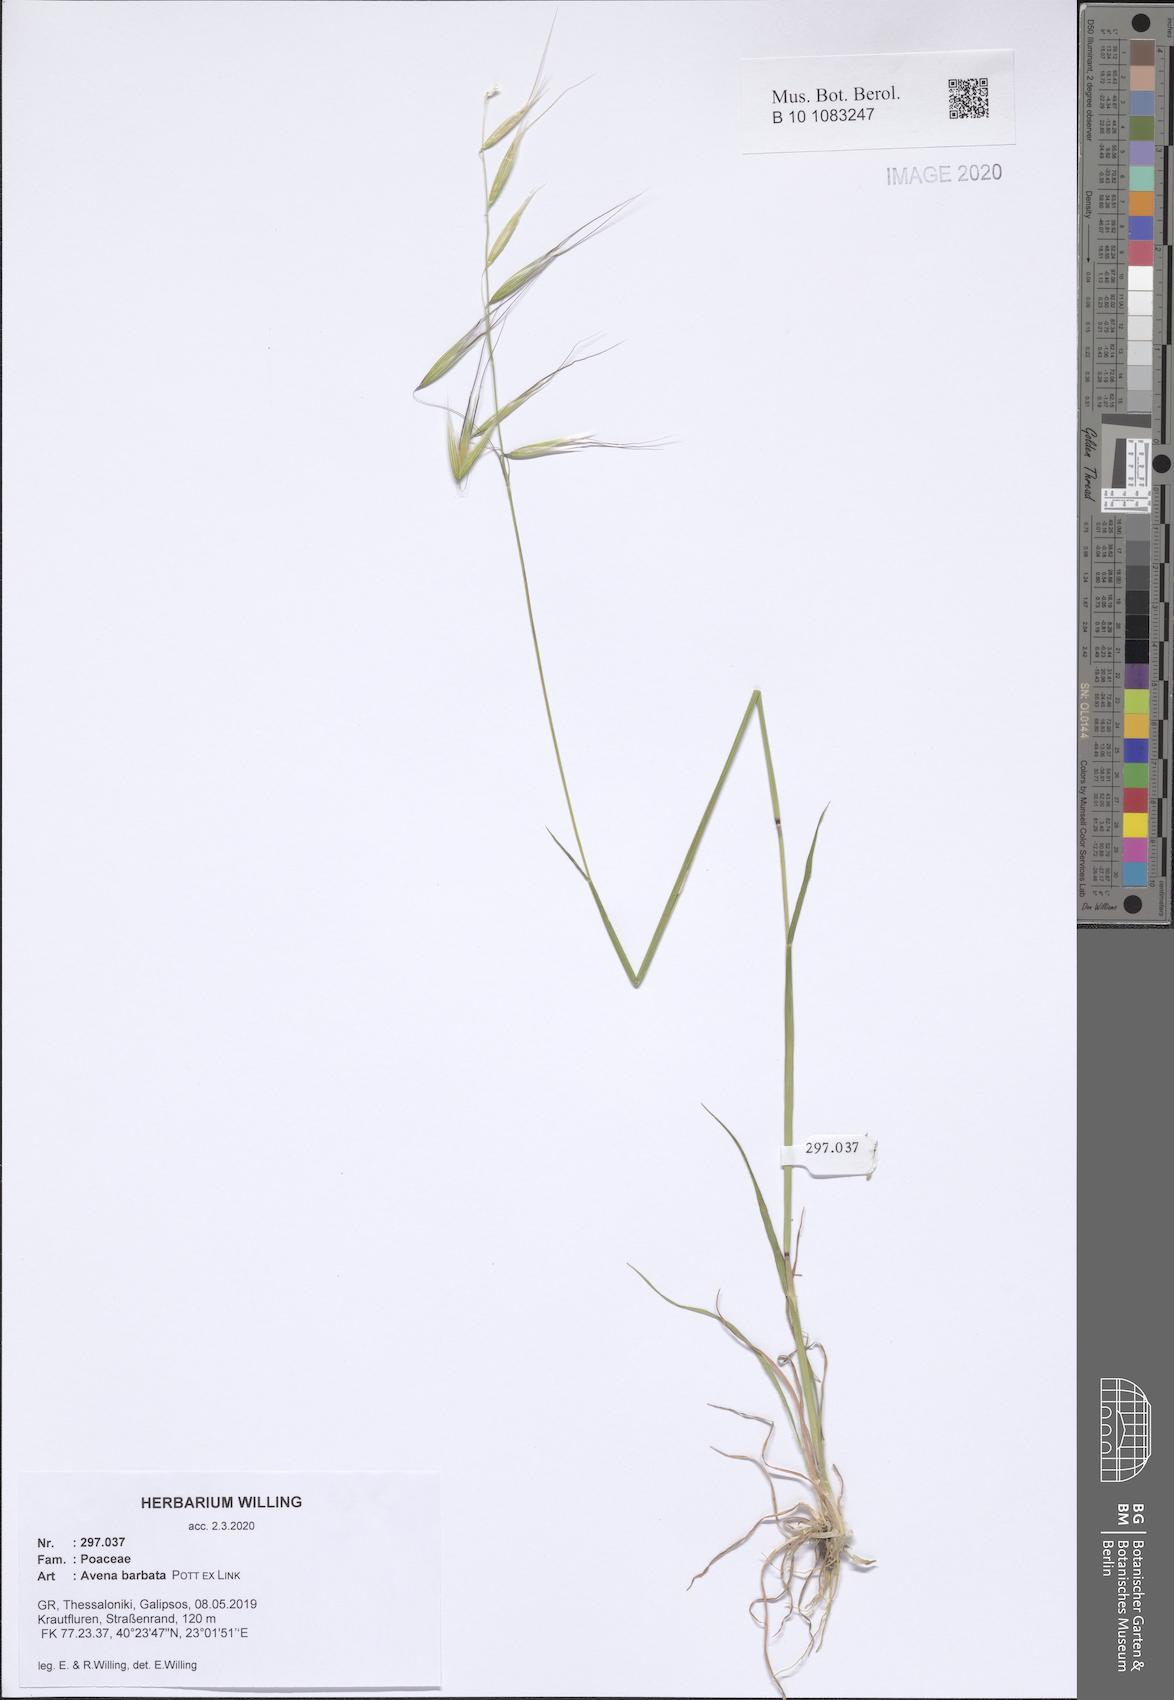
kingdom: Plantae
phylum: Tracheophyta
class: Liliopsida
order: Poales
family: Poaceae
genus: Avena
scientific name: Avena barbata
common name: Slender oat
